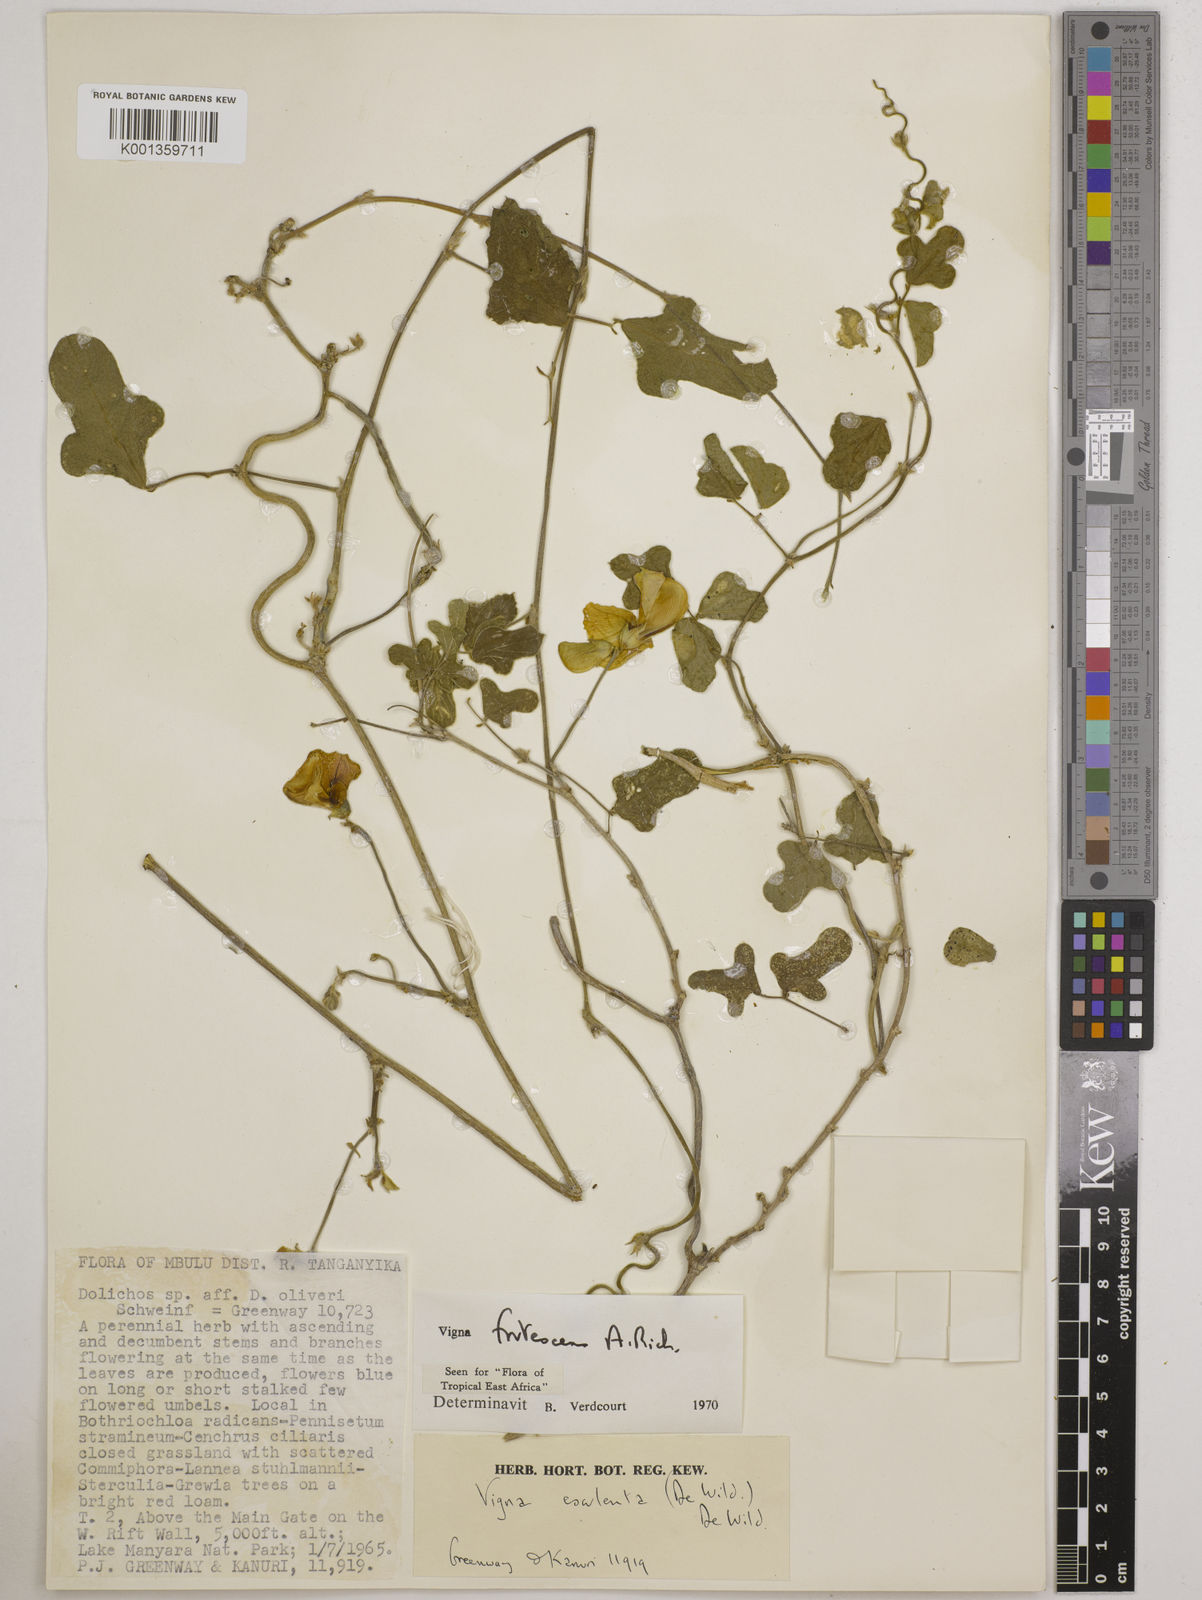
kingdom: Plantae
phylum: Tracheophyta
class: Magnoliopsida
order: Fabales
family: Fabaceae
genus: Vigna
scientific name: Vigna frutescens
